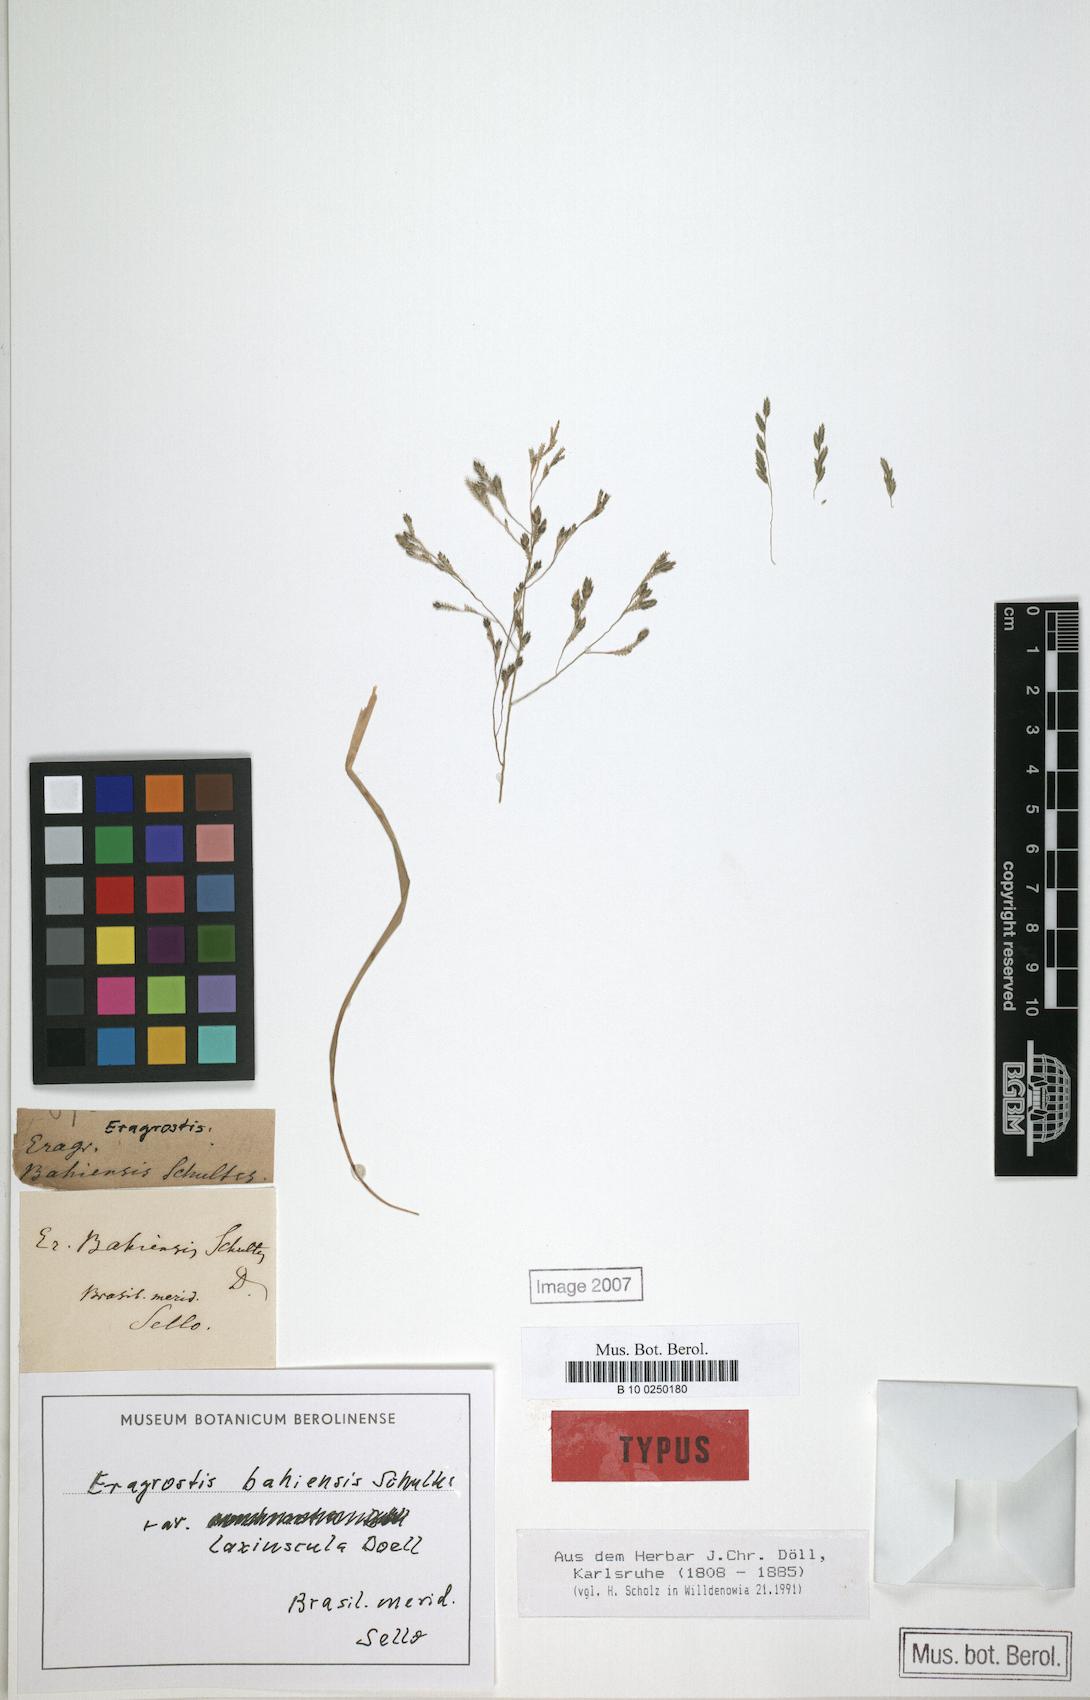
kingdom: Plantae
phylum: Tracheophyta
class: Liliopsida
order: Poales
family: Poaceae
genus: Eragrostis
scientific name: Eragrostis bahiensis
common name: Bahia lovegrass
